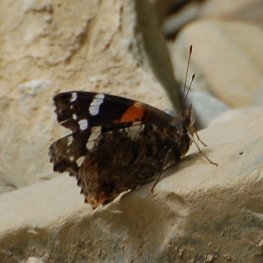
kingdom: Animalia
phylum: Arthropoda
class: Insecta
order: Lepidoptera
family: Nymphalidae
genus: Vanessa
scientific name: Vanessa atalanta
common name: Red Admiral
